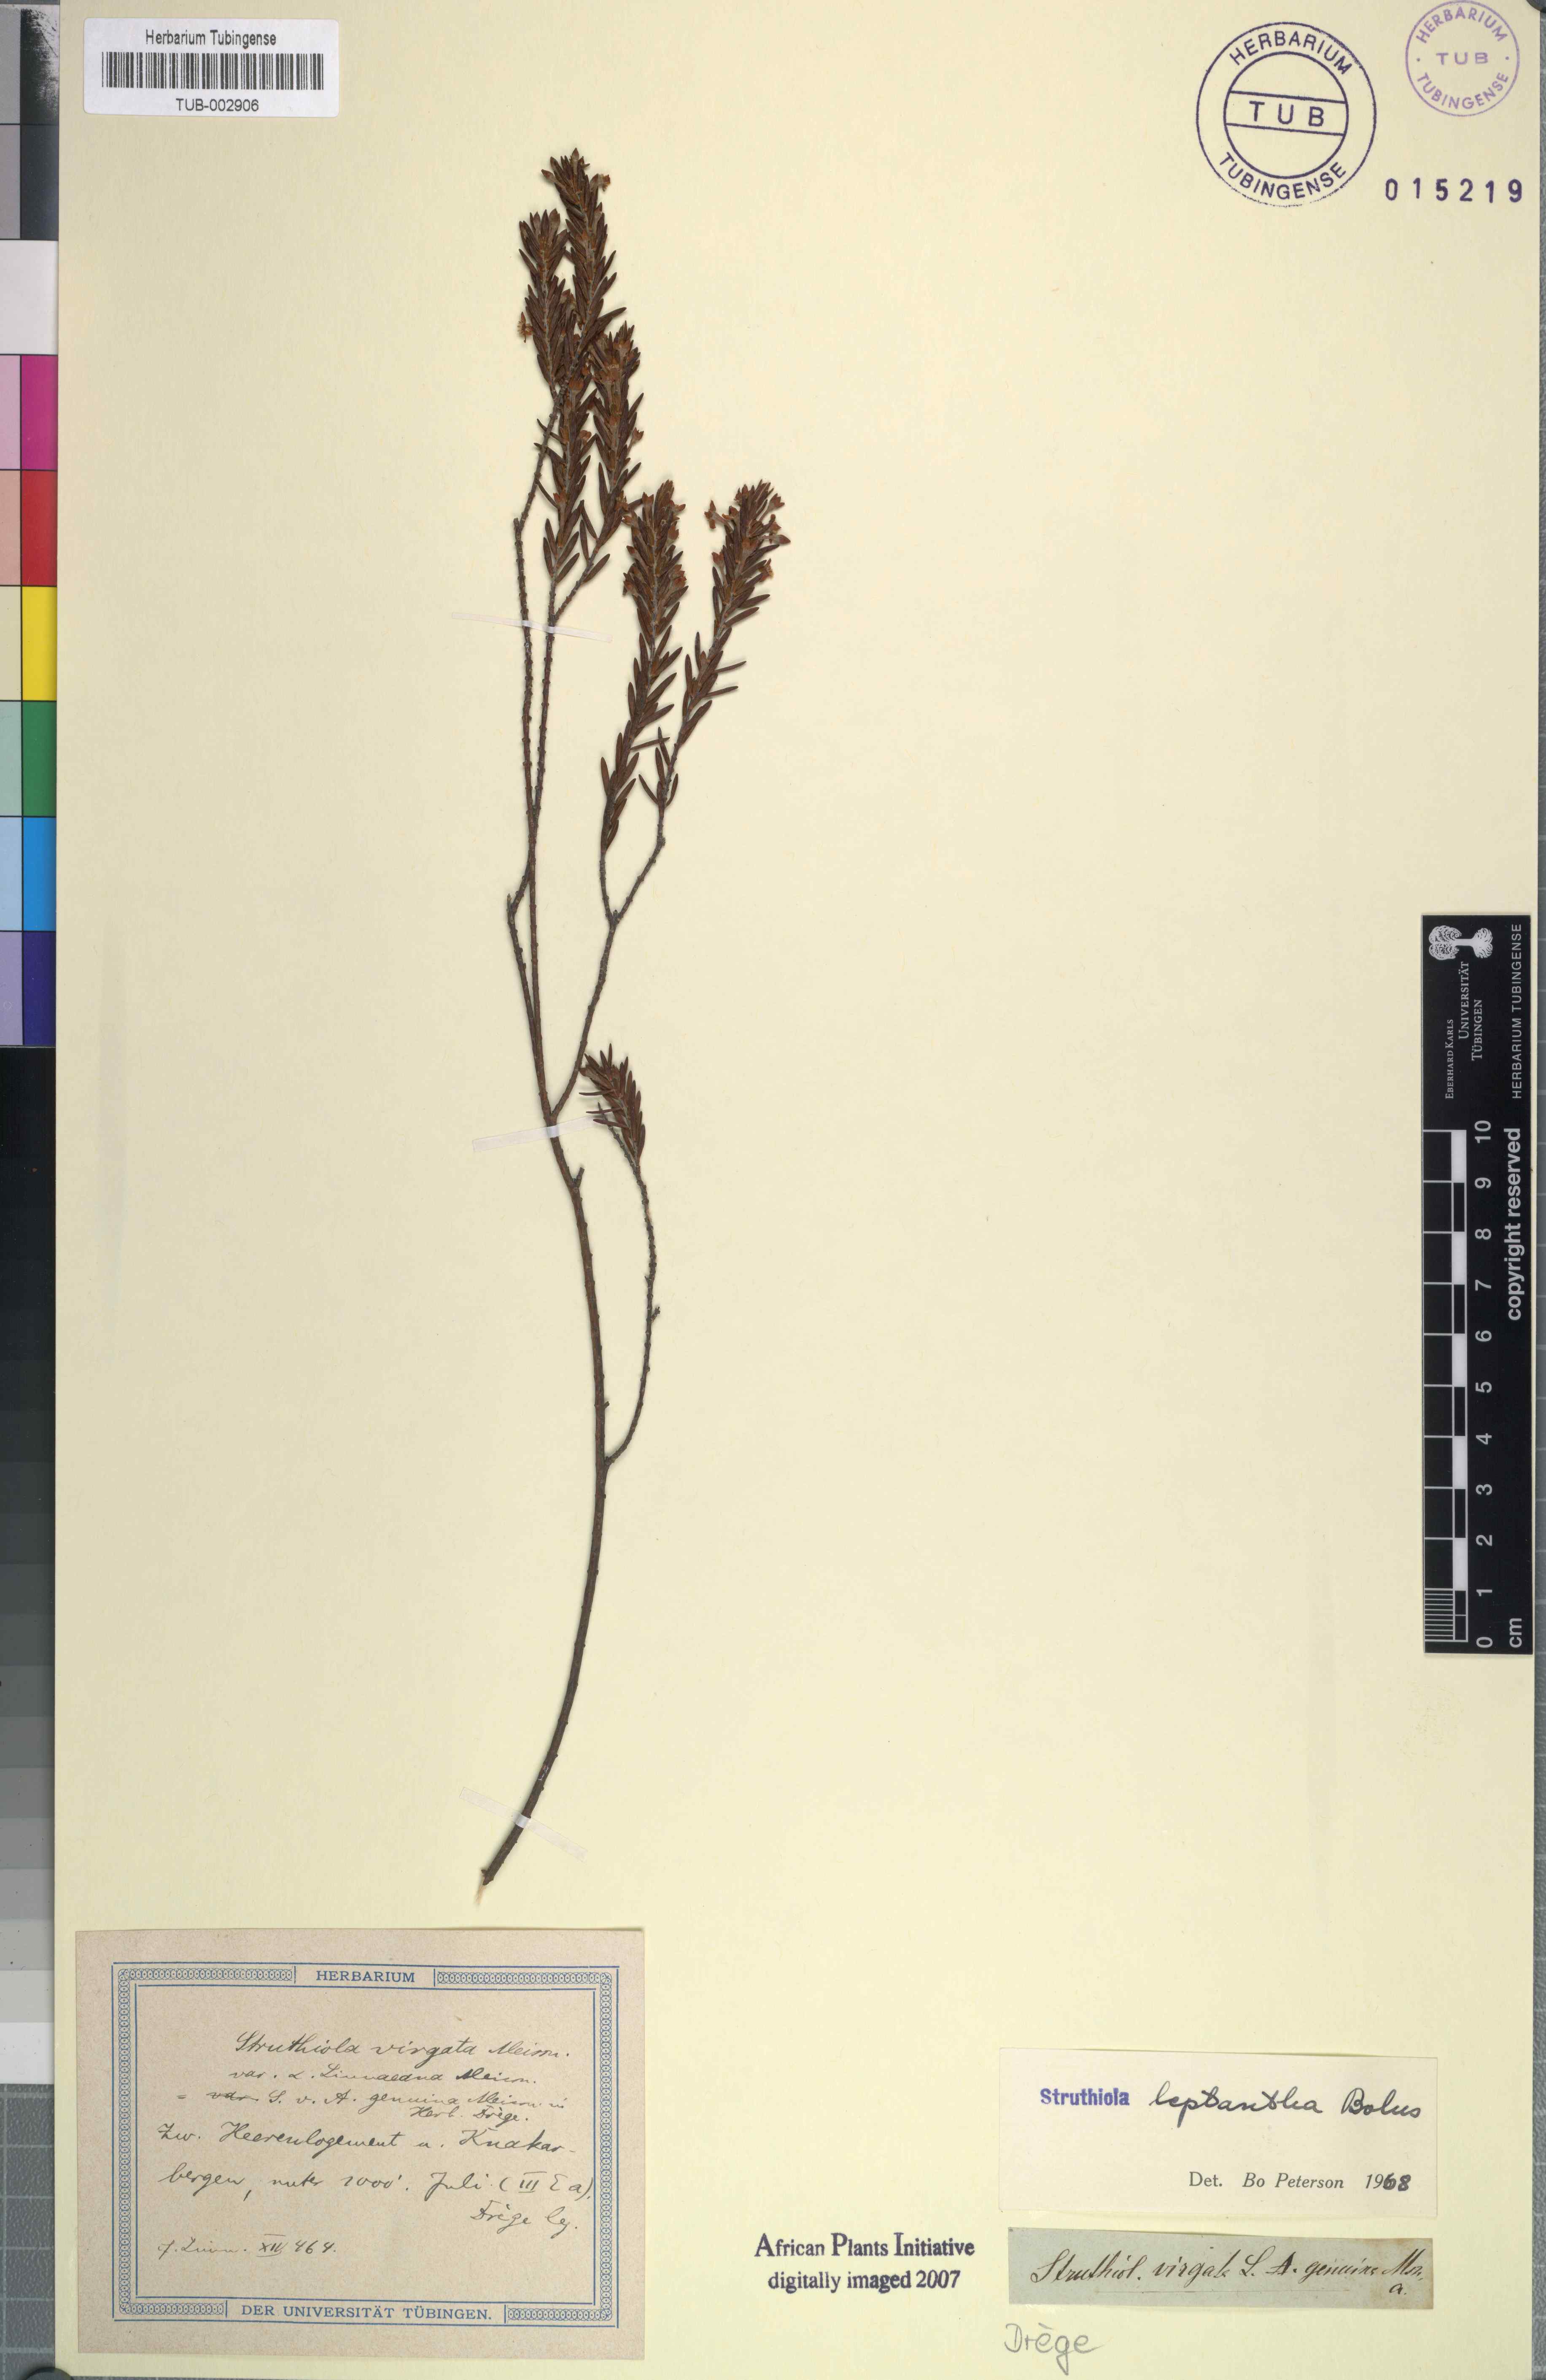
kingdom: Plantae
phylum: Tracheophyta
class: Magnoliopsida
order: Malvales
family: Thymelaeaceae
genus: Struthiola
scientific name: Struthiola leptantha
